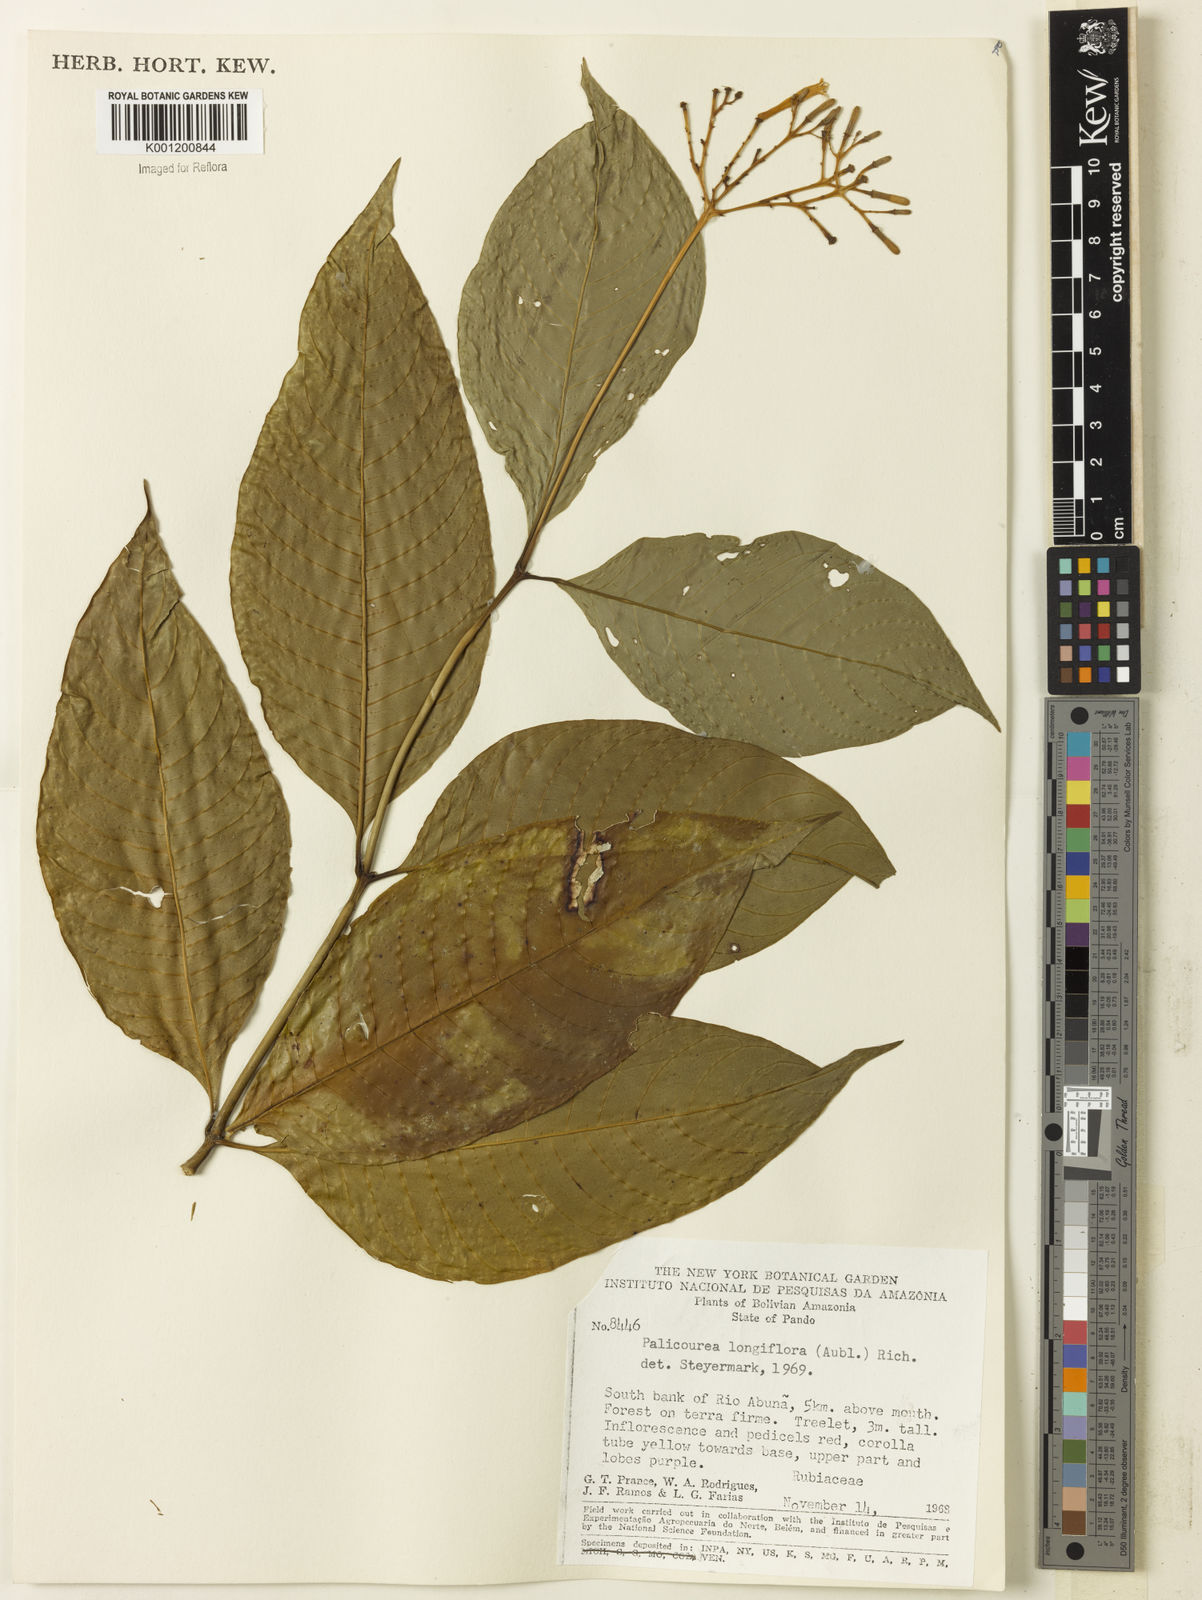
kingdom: Plantae
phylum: Tracheophyta
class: Magnoliopsida
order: Gentianales
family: Rubiaceae
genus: Palicourea
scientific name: Palicourea longiflora
